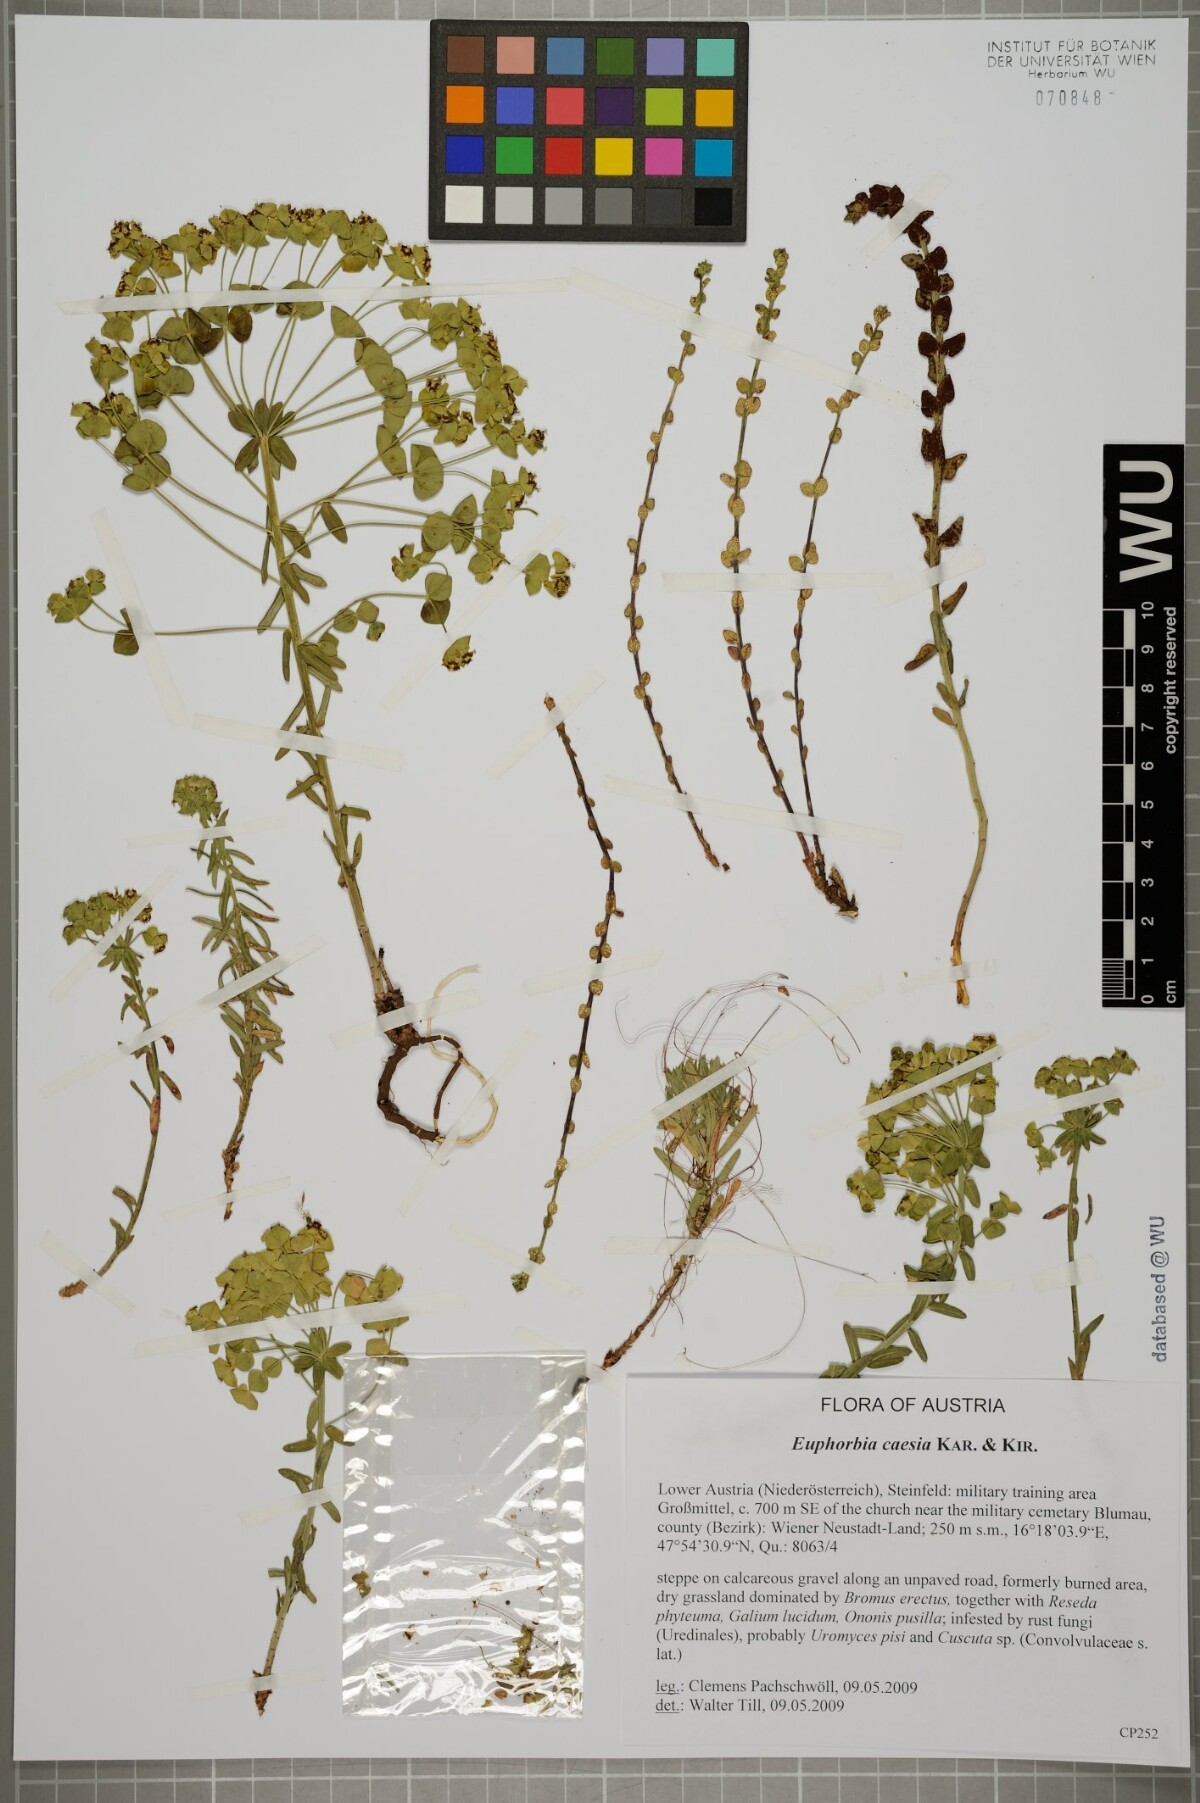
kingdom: Plantae
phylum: Tracheophyta
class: Magnoliopsida
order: Malpighiales
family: Euphorbiaceae
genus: Euphorbia
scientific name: Euphorbia caesia
